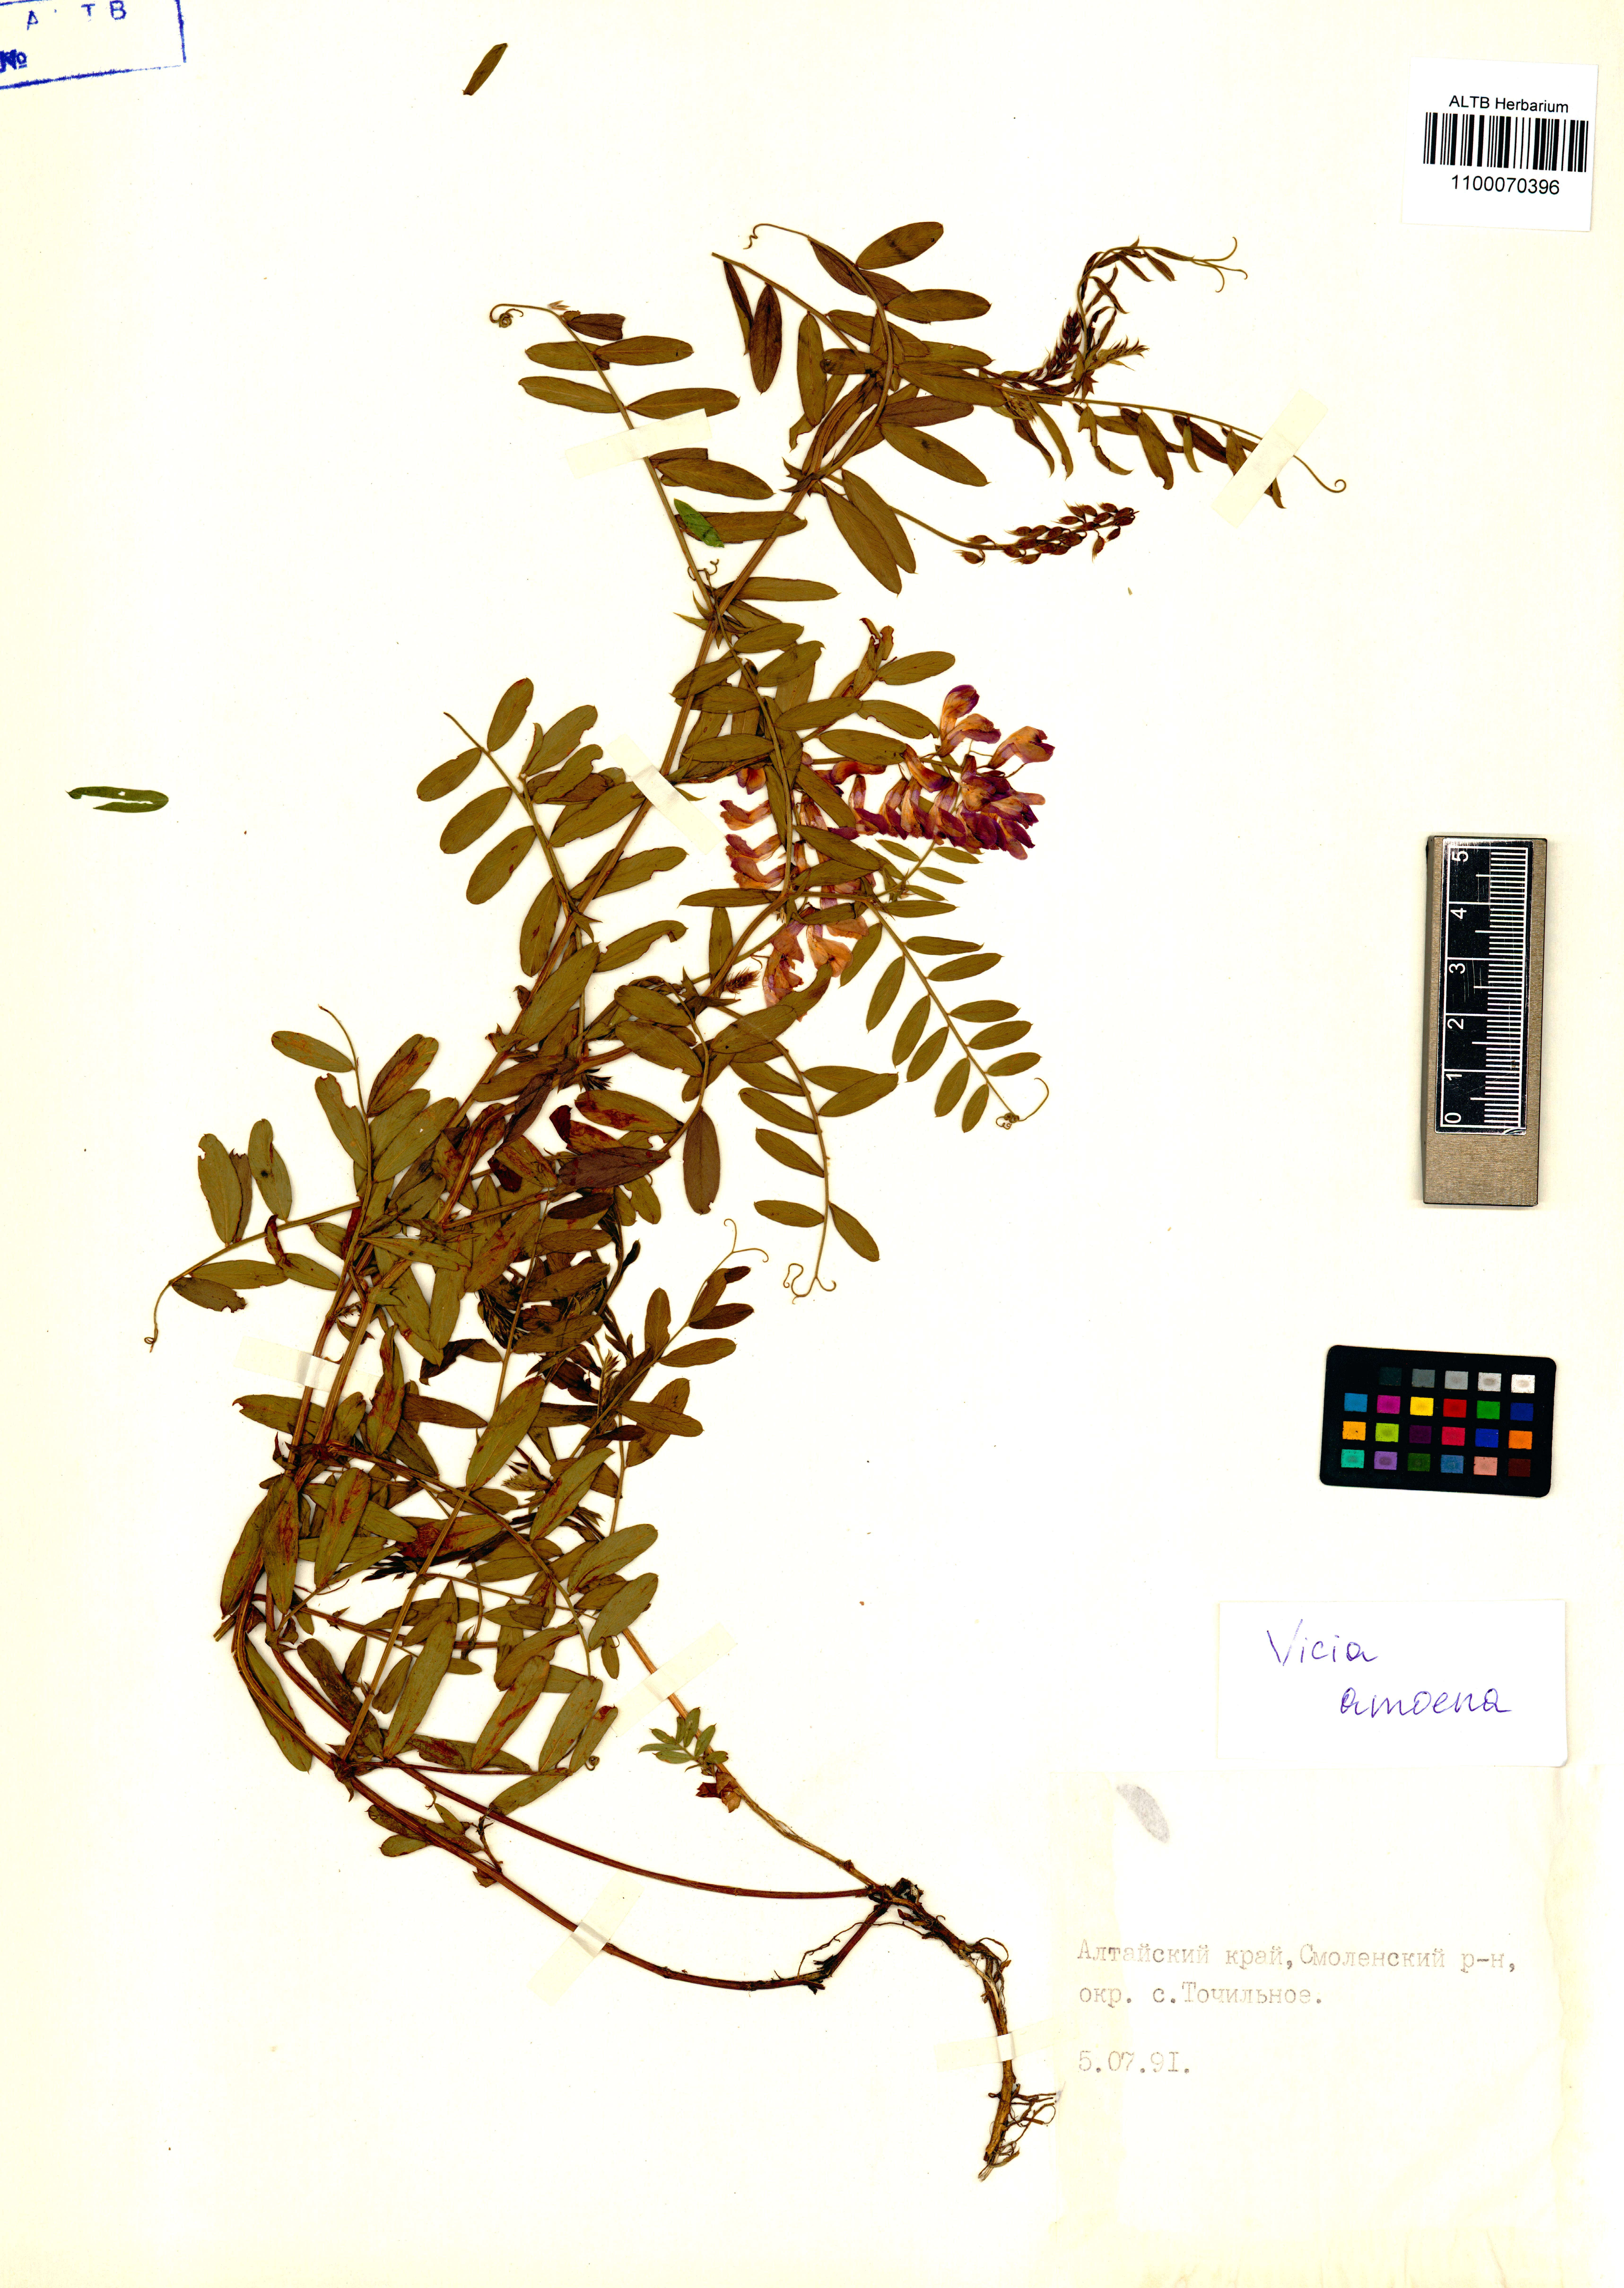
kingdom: Plantae
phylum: Tracheophyta
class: Magnoliopsida
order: Fabales
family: Fabaceae
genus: Vicia
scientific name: Vicia amoena
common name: Cheder ebs
